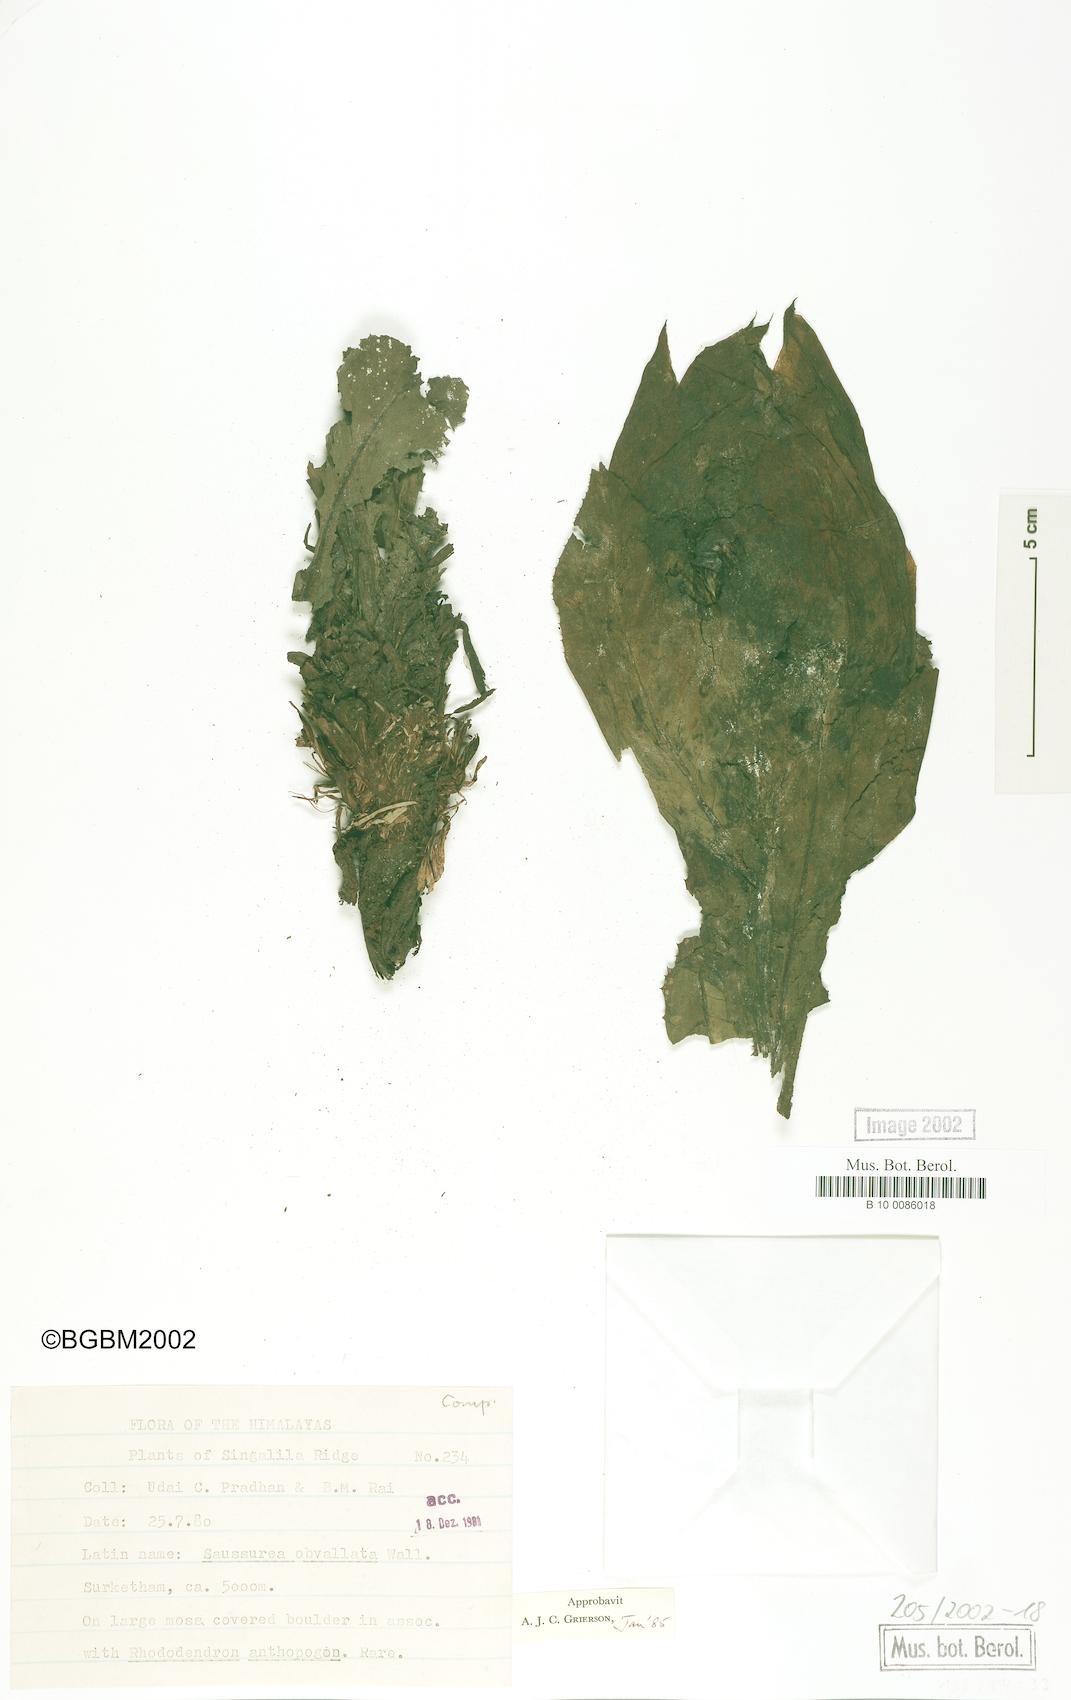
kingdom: Plantae
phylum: Tracheophyta
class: Magnoliopsida
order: Asterales
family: Asteraceae
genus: Saussurea
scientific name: Saussurea sikkimensis
